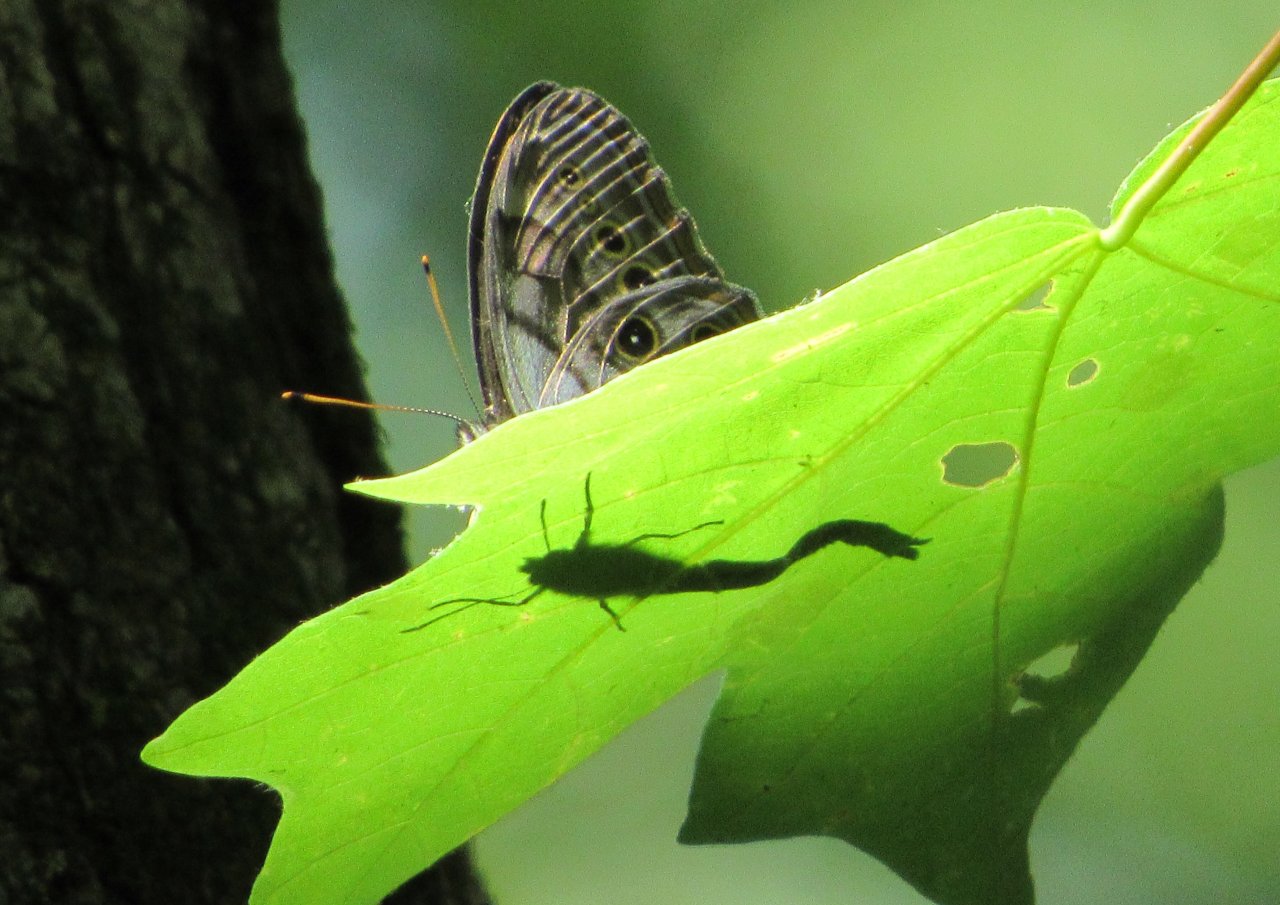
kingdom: Animalia
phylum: Arthropoda
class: Insecta
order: Lepidoptera
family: Nymphalidae
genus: Lethe
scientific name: Lethe anthedon
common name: Northern Pearly-Eye
